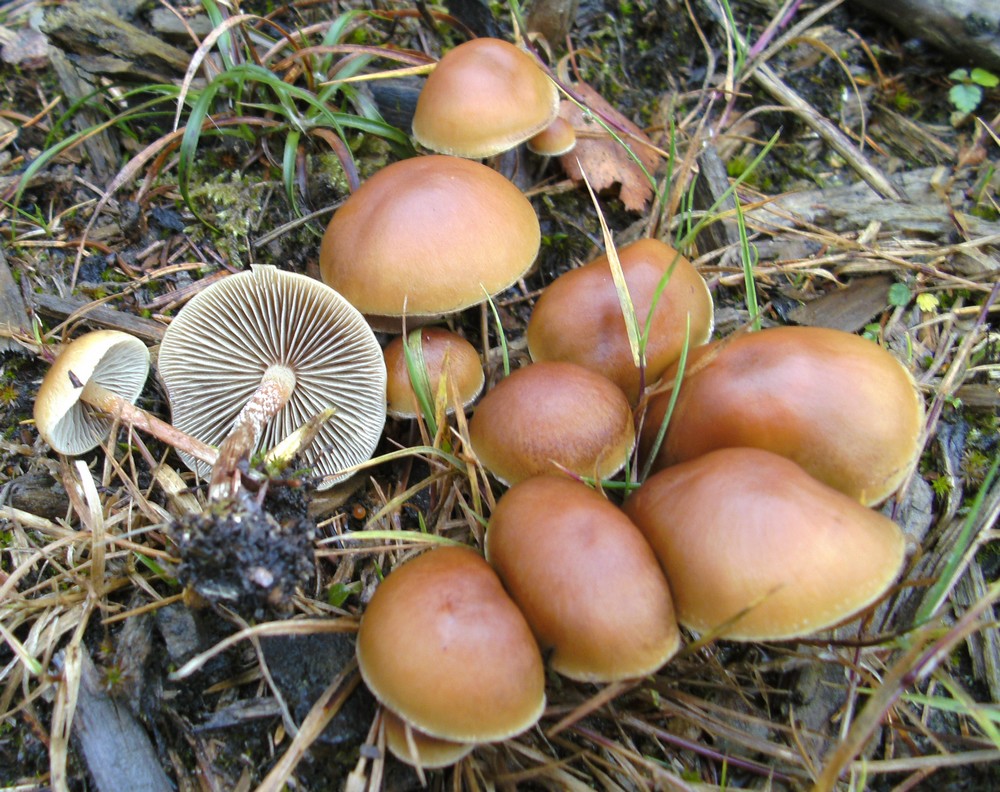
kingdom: Fungi
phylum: Basidiomycota
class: Agaricomycetes
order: Agaricales
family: Strophariaceae
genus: Hypholoma
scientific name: Hypholoma marginatum
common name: enlig svovlhat
